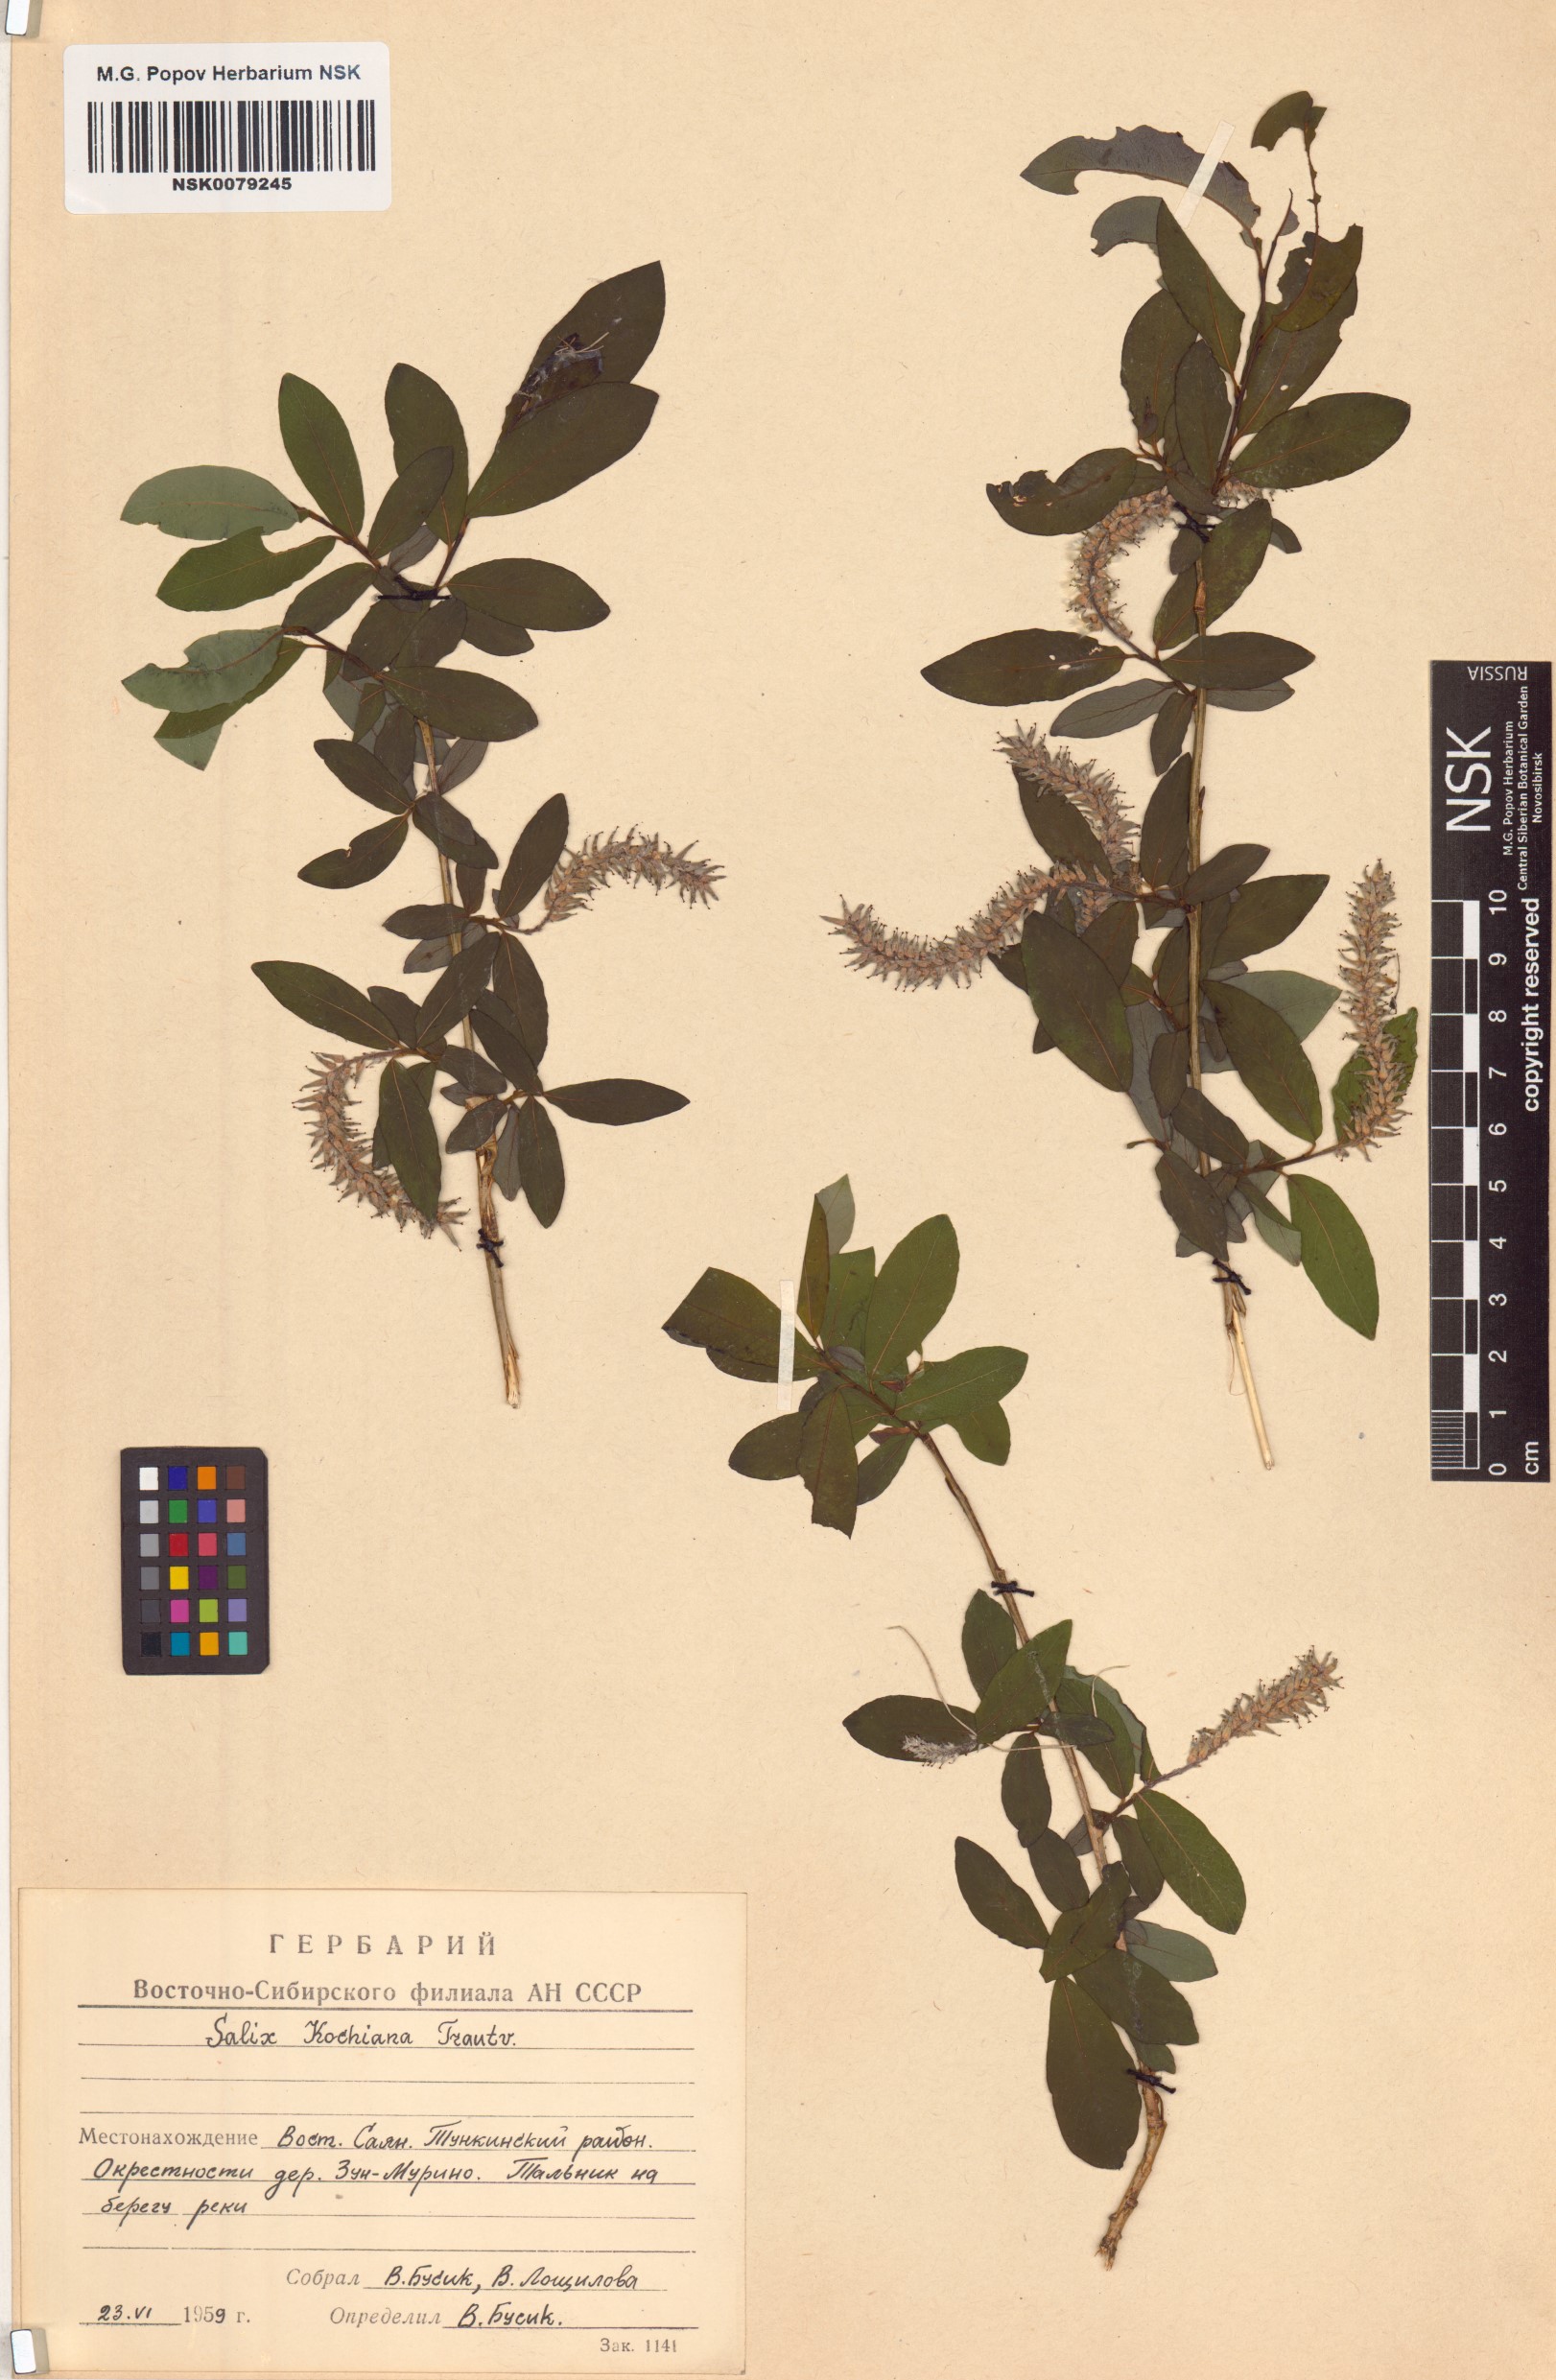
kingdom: Plantae
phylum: Tracheophyta
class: Magnoliopsida
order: Malpighiales
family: Salicaceae
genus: Salix
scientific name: Salix kochiana
